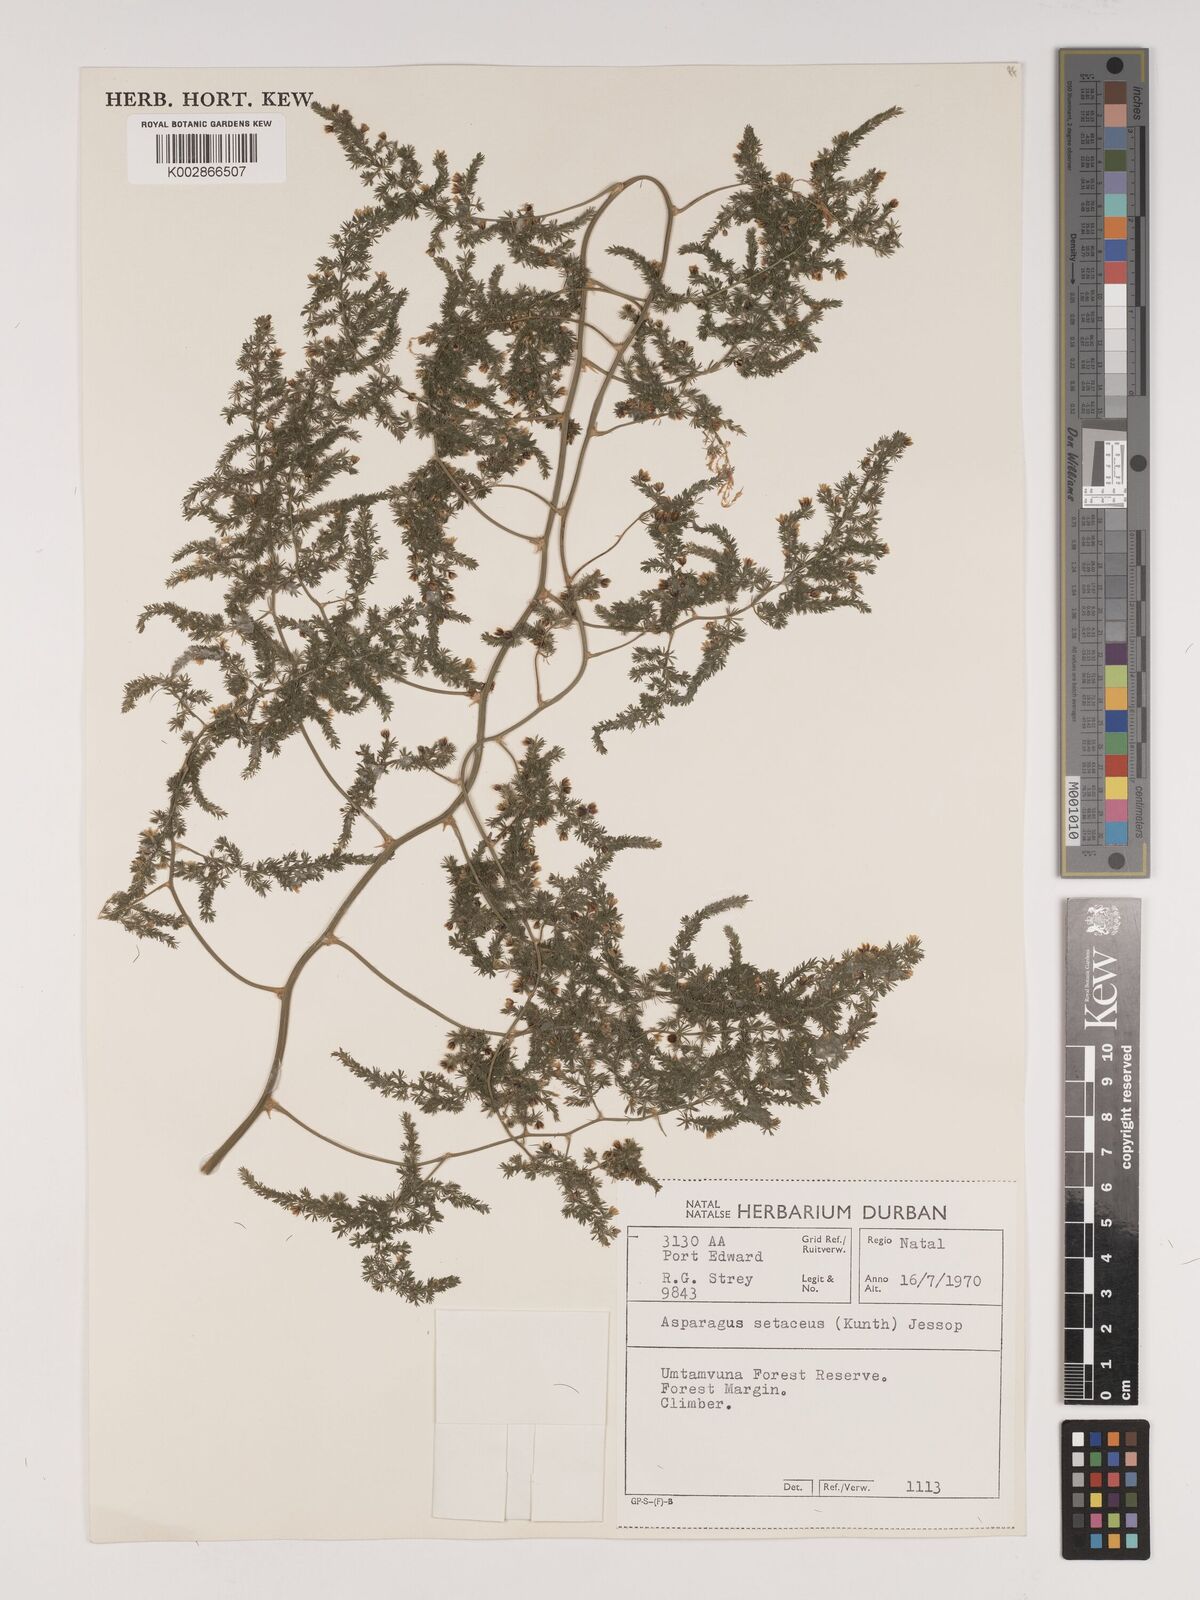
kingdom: Plantae
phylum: Tracheophyta
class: Liliopsida
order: Asparagales
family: Asparagaceae
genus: Asparagus
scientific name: Asparagus setaceus
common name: Common asparagus fern
